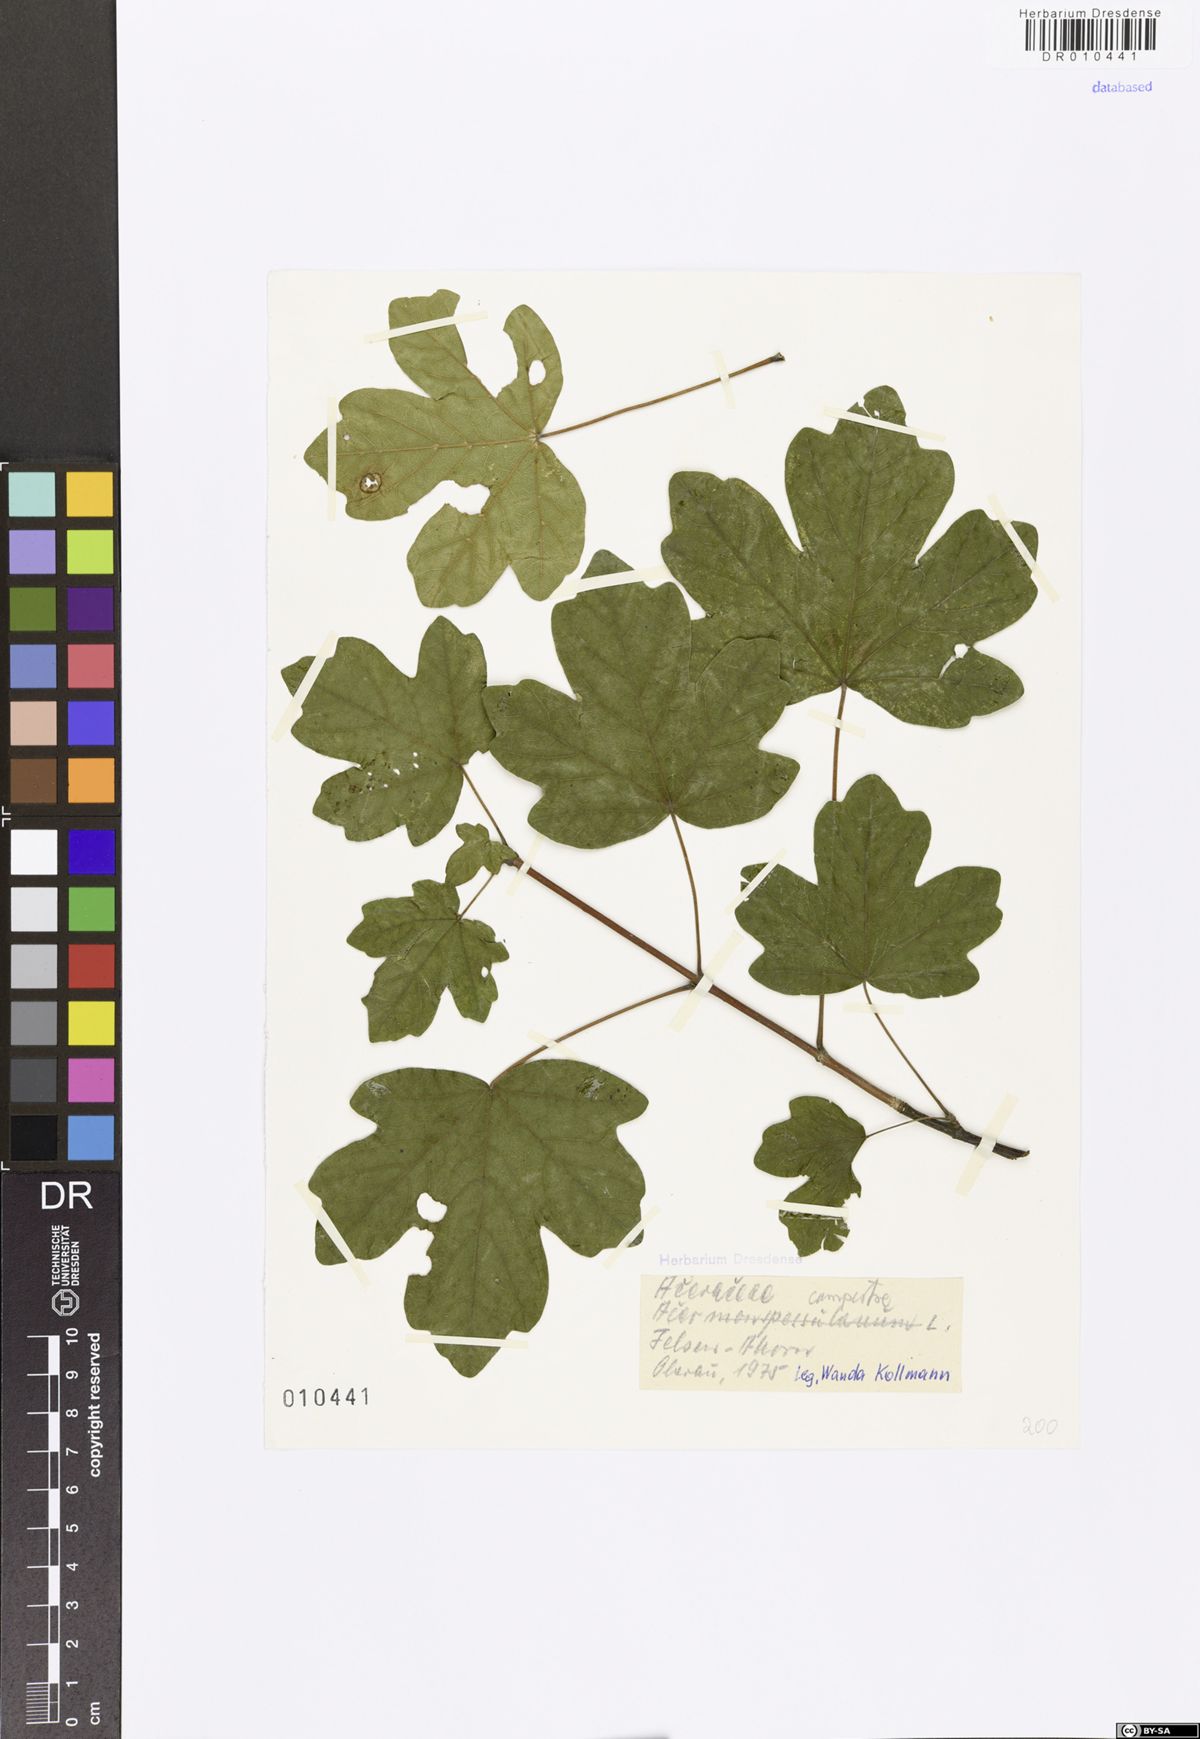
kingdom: Plantae
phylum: Tracheophyta
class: Magnoliopsida
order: Sapindales
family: Sapindaceae
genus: Acer
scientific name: Acer campestre
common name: Field maple
